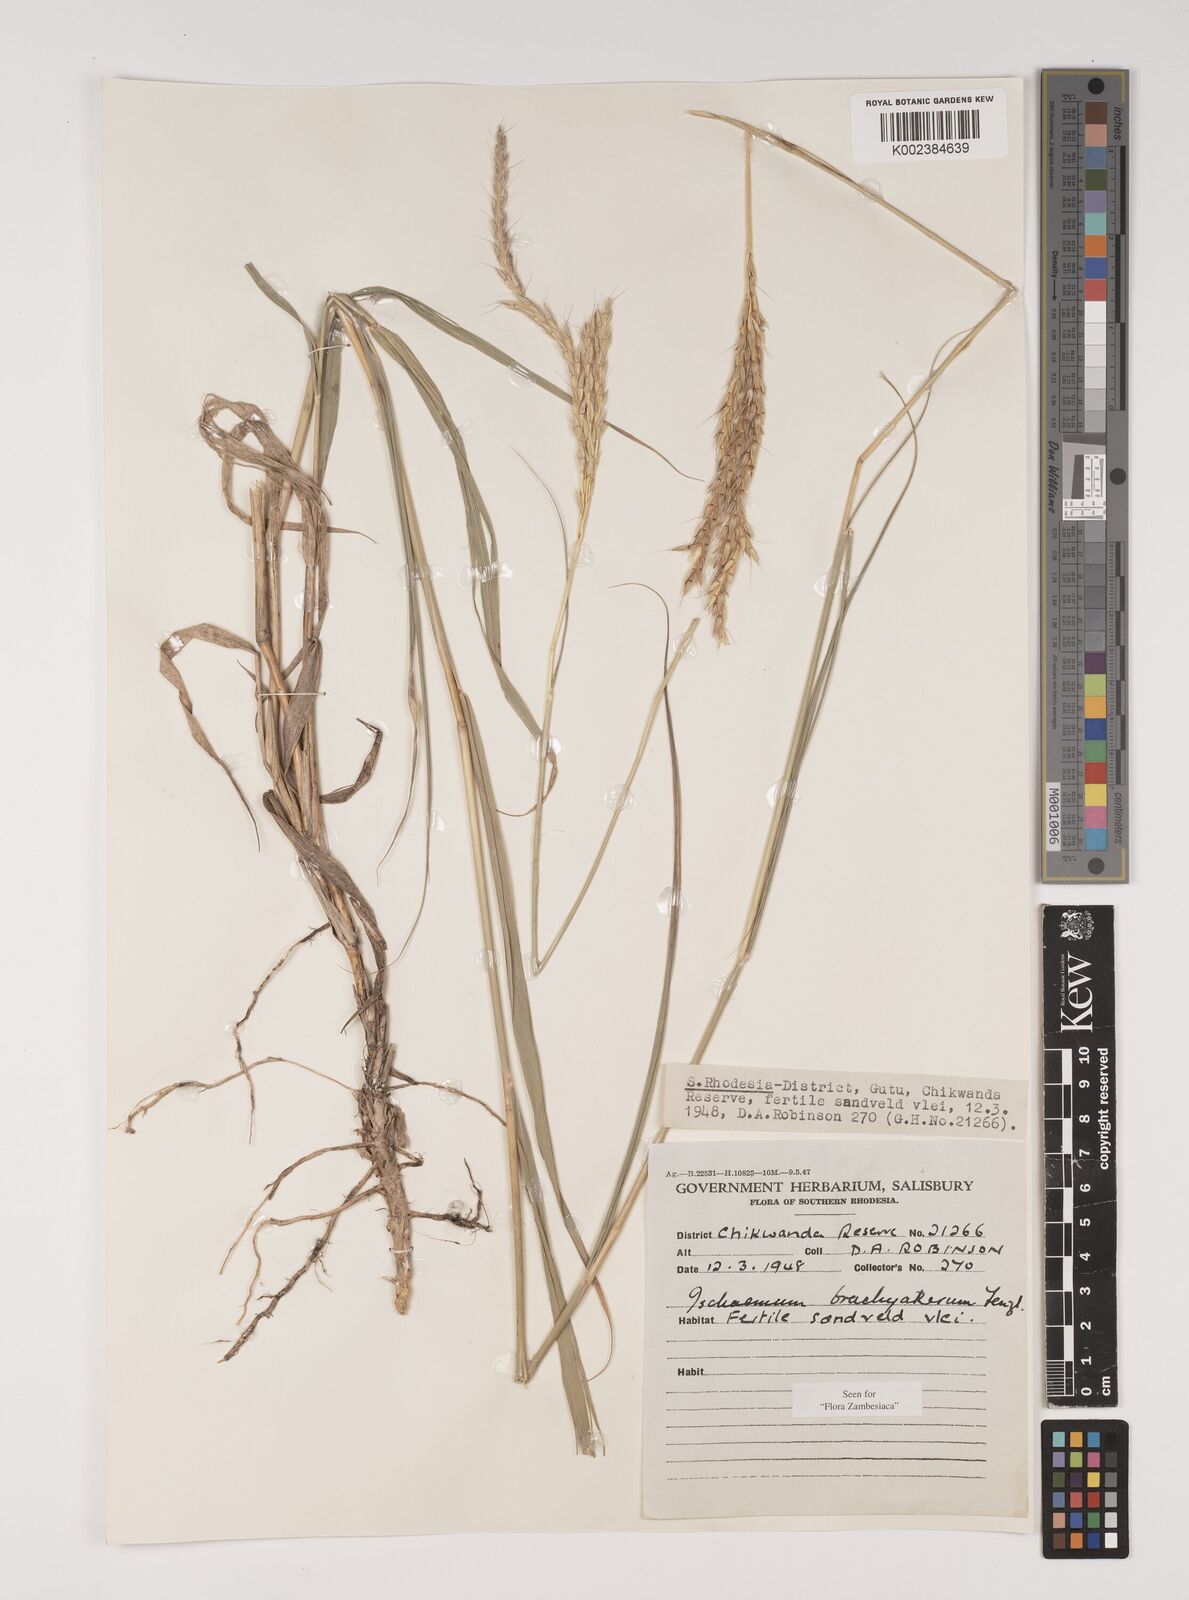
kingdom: Plantae
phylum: Tracheophyta
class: Liliopsida
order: Poales
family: Poaceae
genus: Ischaemum
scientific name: Ischaemum afrum
